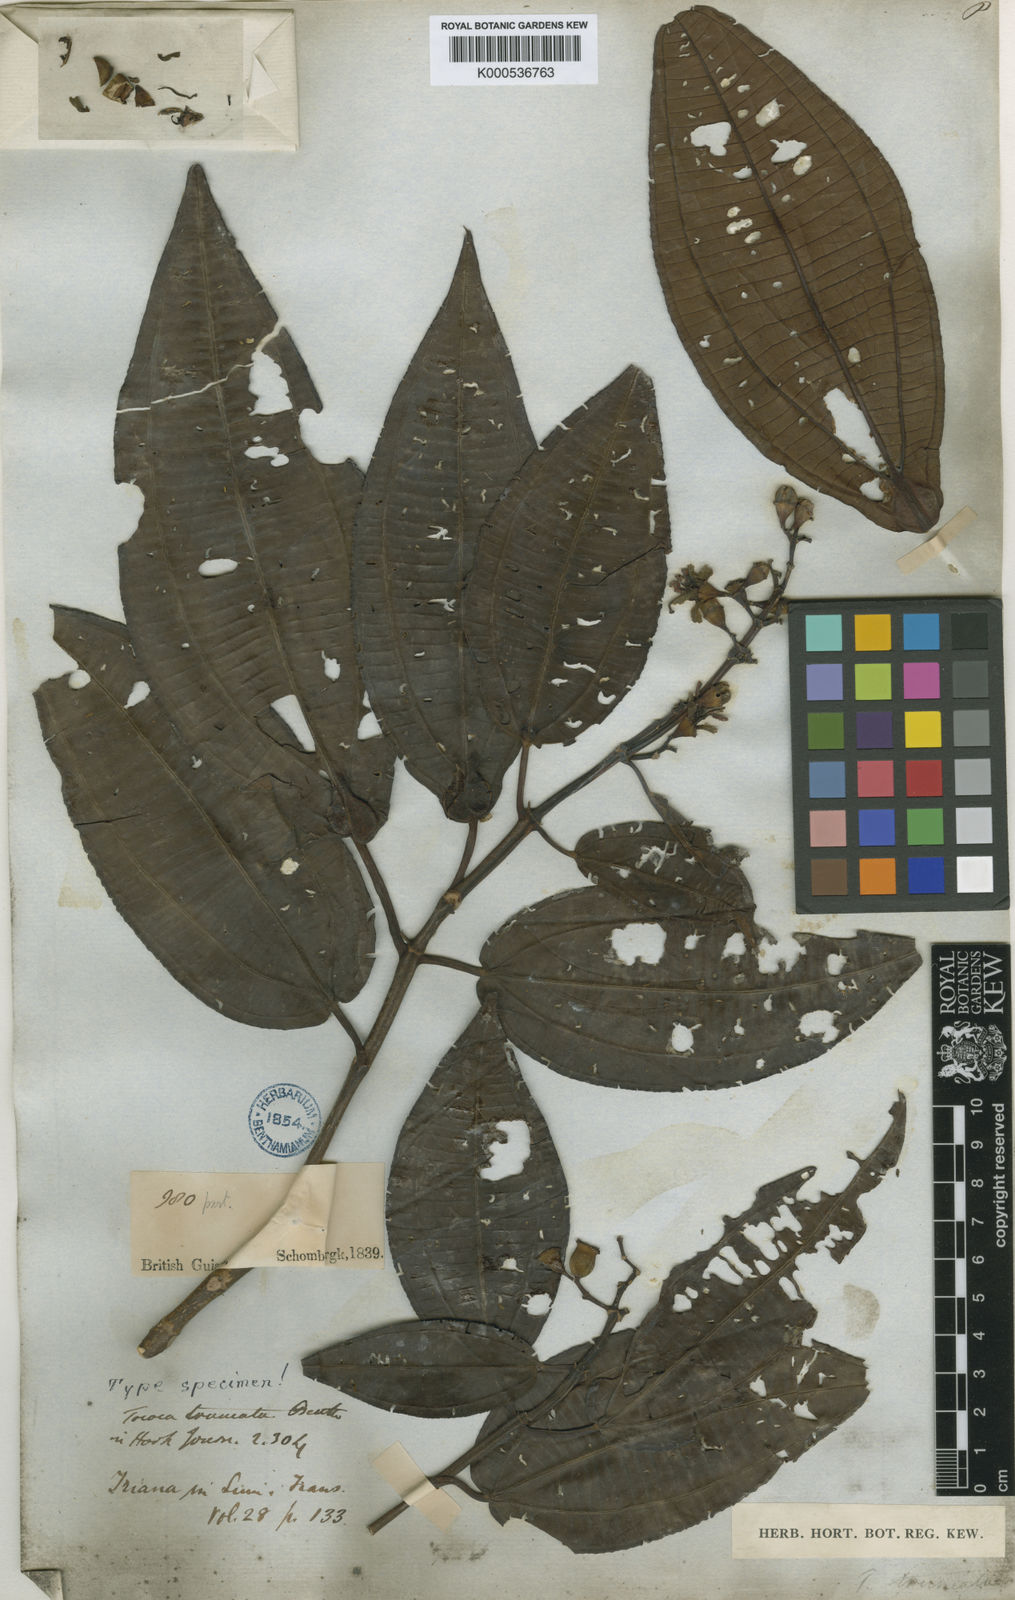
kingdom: Plantae
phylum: Tracheophyta
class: Magnoliopsida
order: Myrtales
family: Melastomataceae
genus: Miconia
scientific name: Miconia tococoronata
